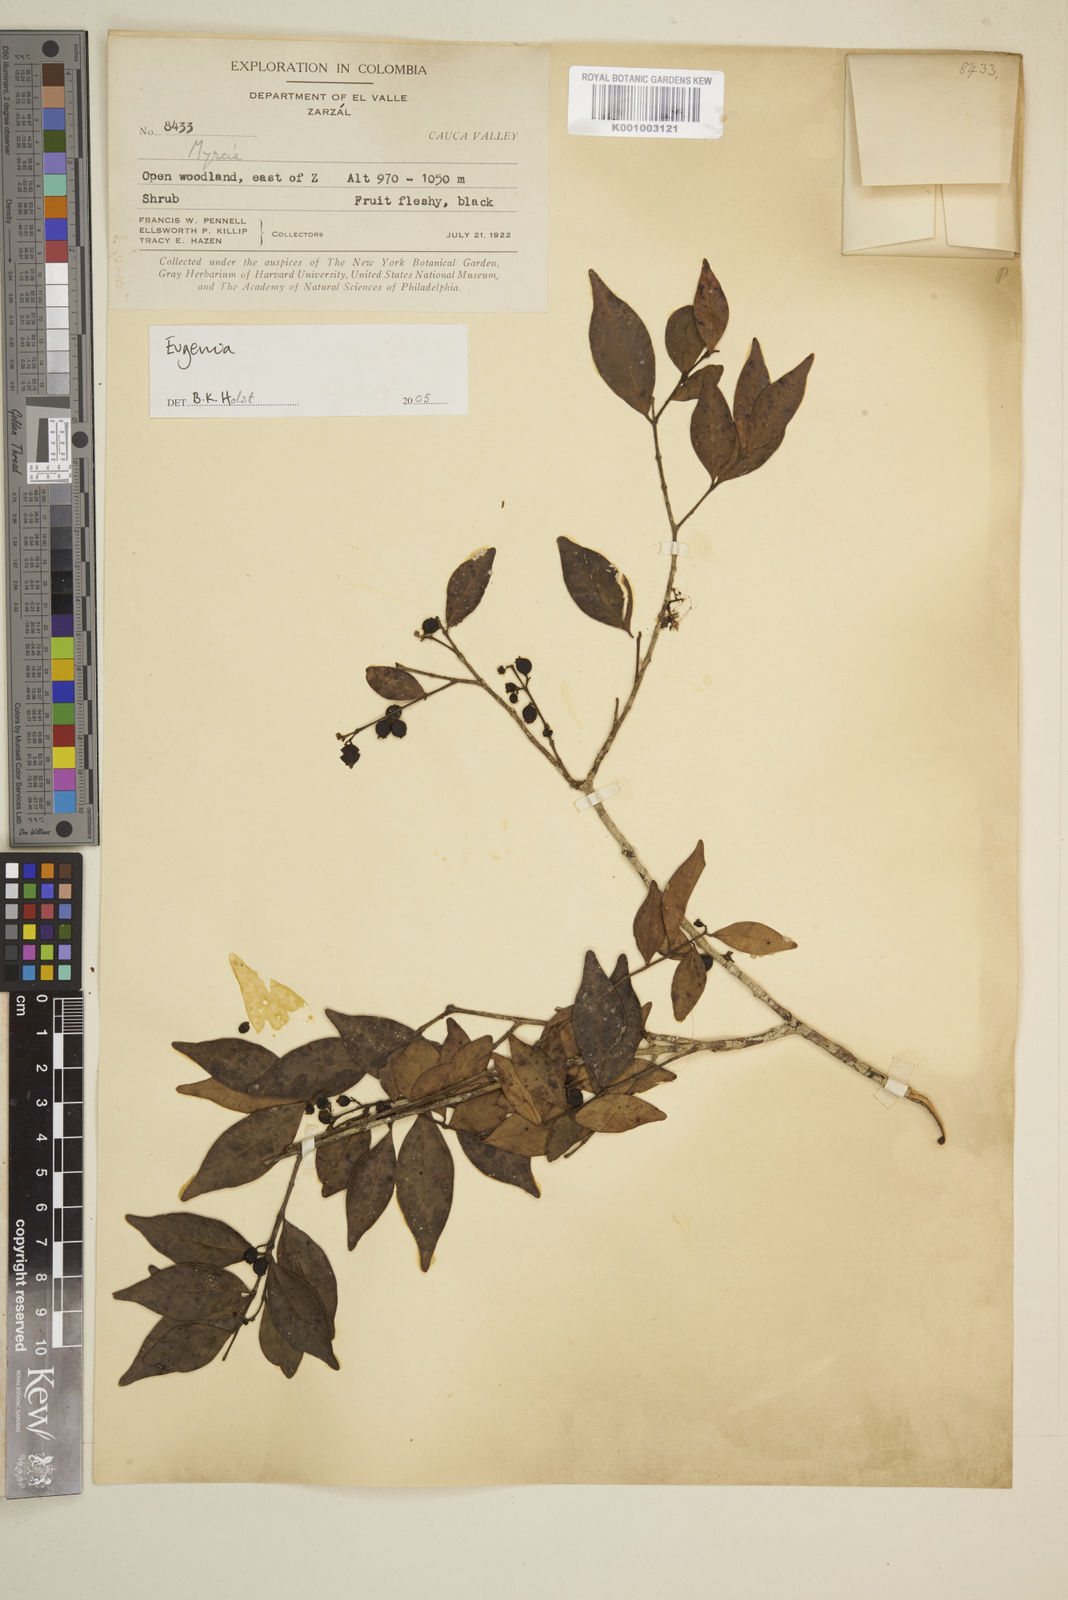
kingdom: Plantae
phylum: Tracheophyta
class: Magnoliopsida
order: Myrtales
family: Myrtaceae
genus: Eugenia
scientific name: Eugenia
